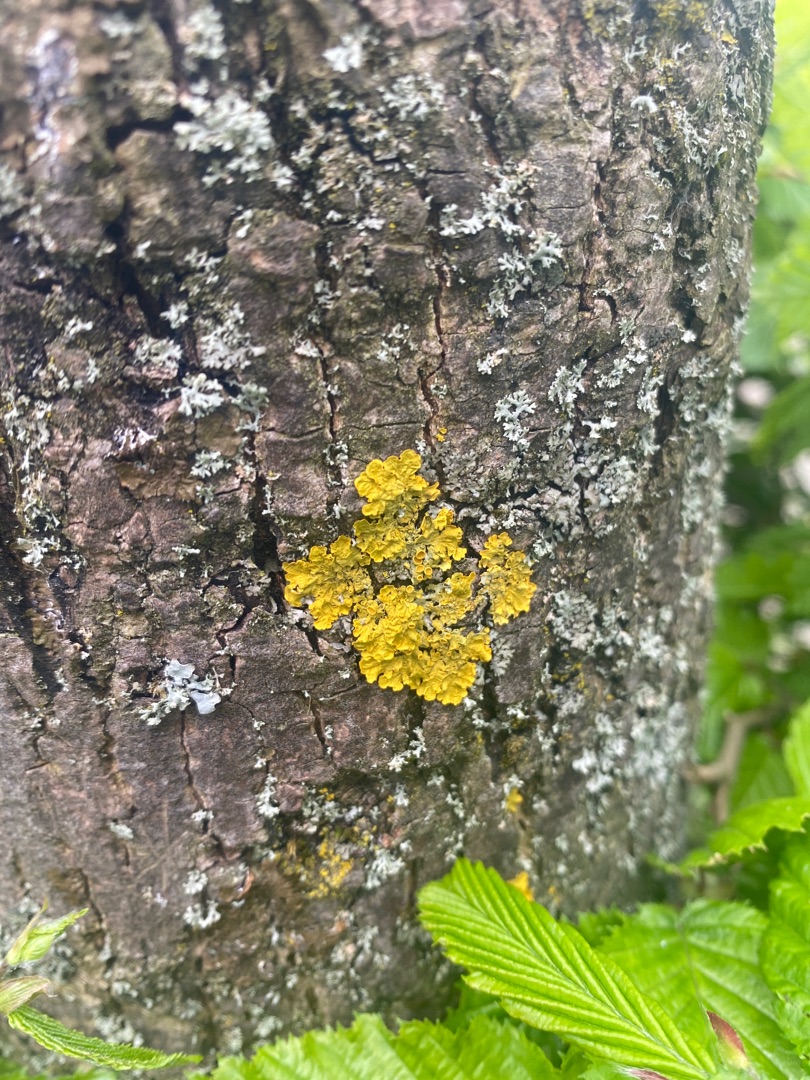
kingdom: Fungi
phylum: Ascomycota
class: Lecanoromycetes
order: Teloschistales
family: Teloschistaceae
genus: Xanthoria
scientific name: Xanthoria parietina
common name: Almindelig væggelav
